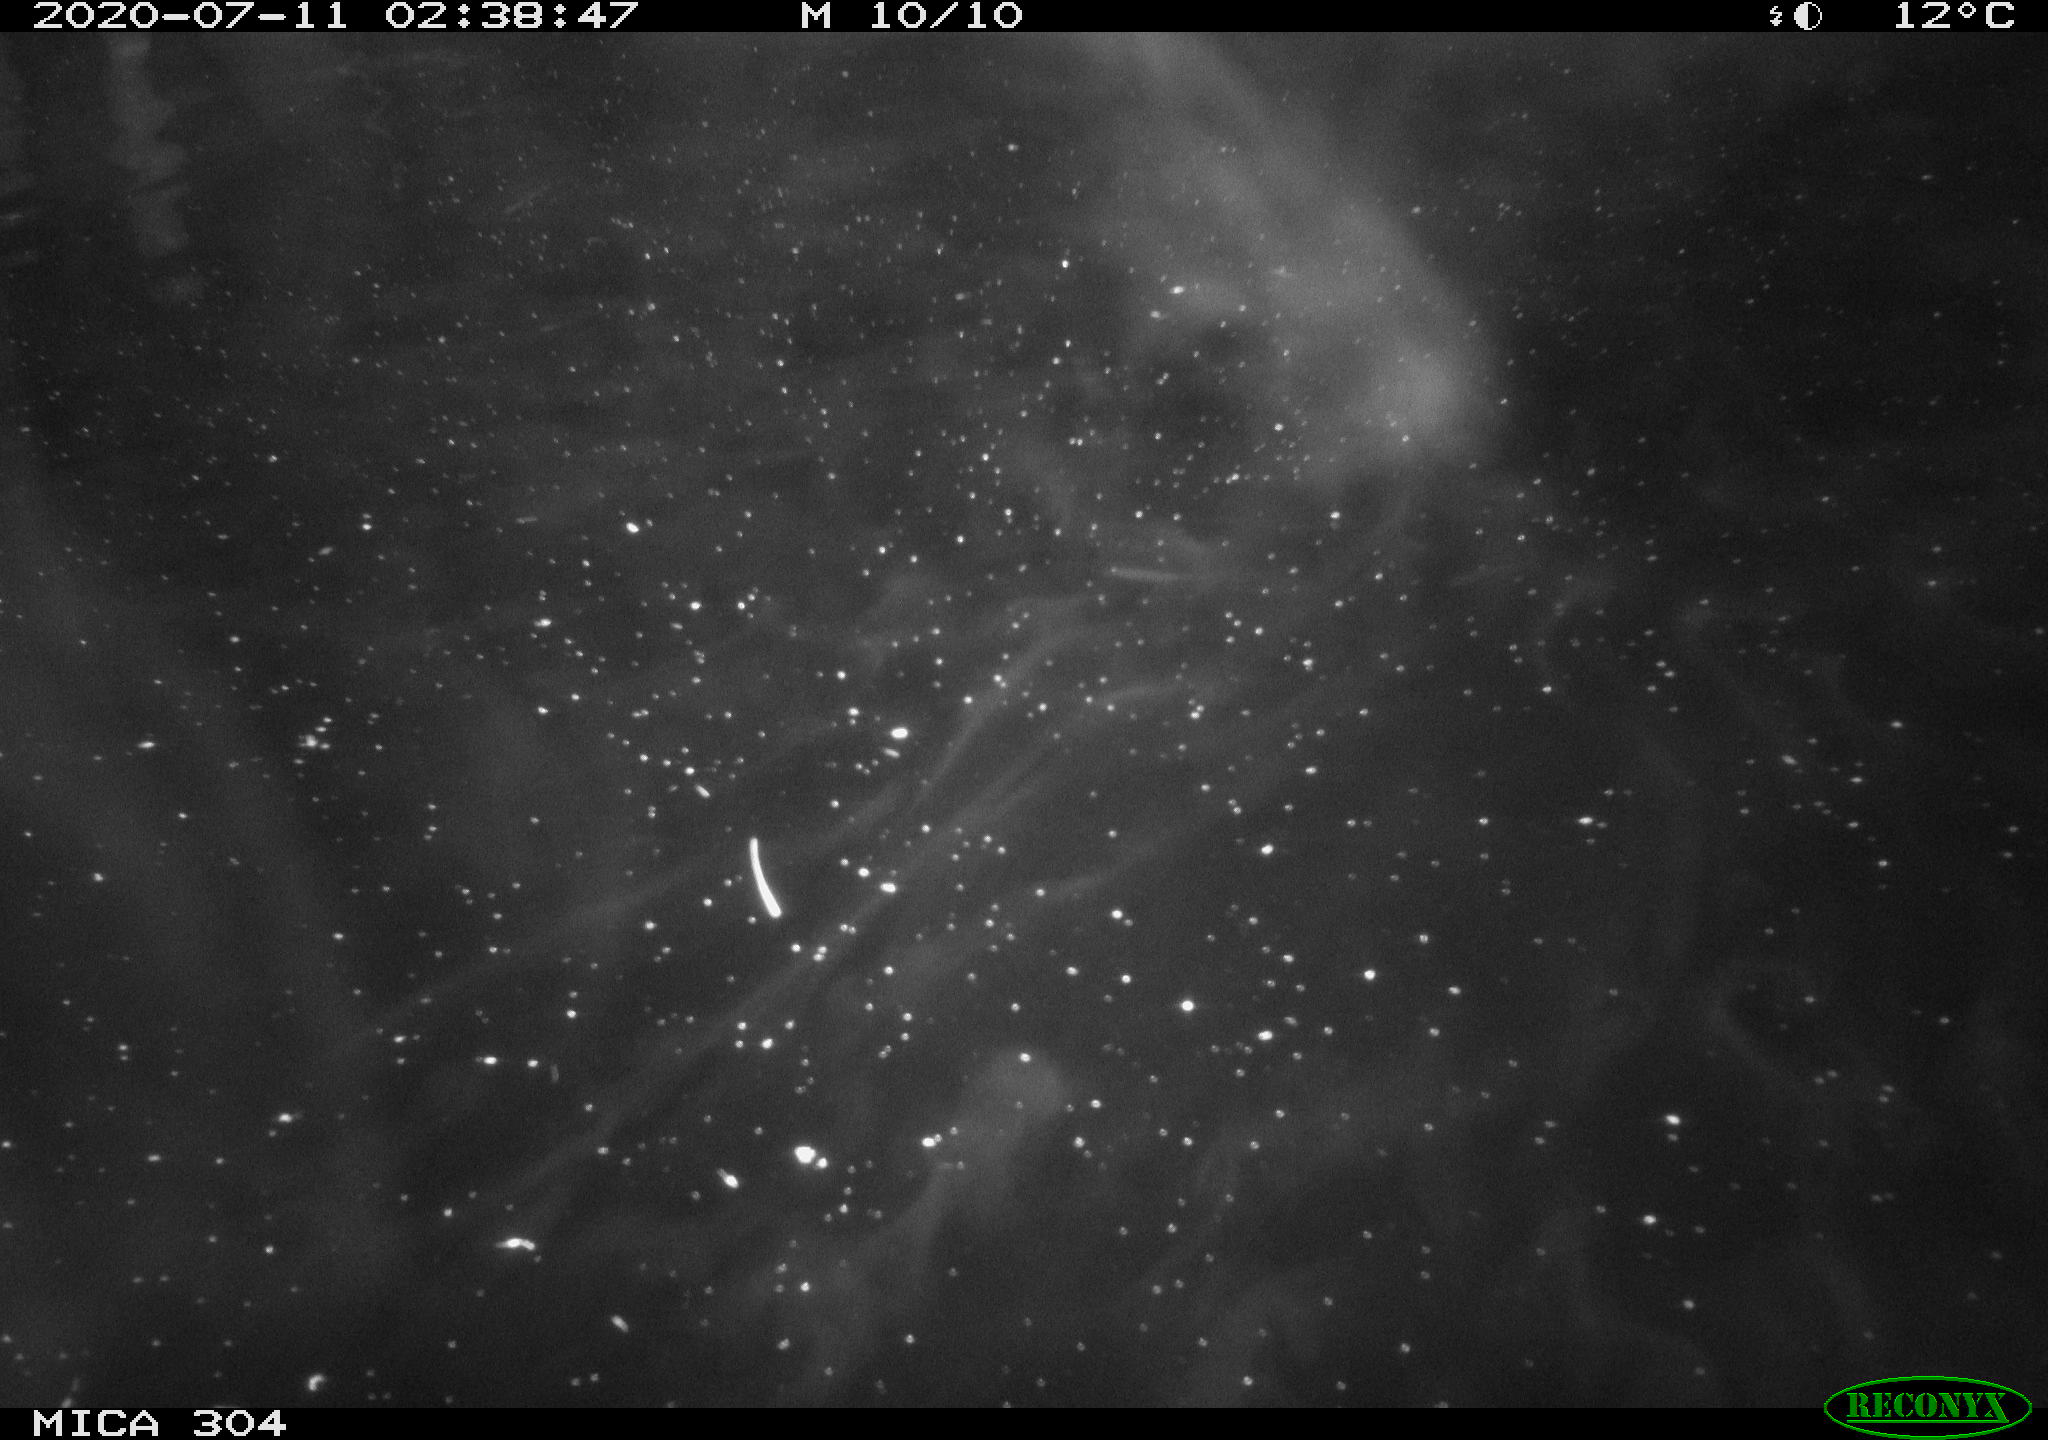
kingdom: Animalia
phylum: Chordata
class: Mammalia
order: Rodentia
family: Cricetidae
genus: Ondatra
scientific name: Ondatra zibethicus
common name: Muskrat
